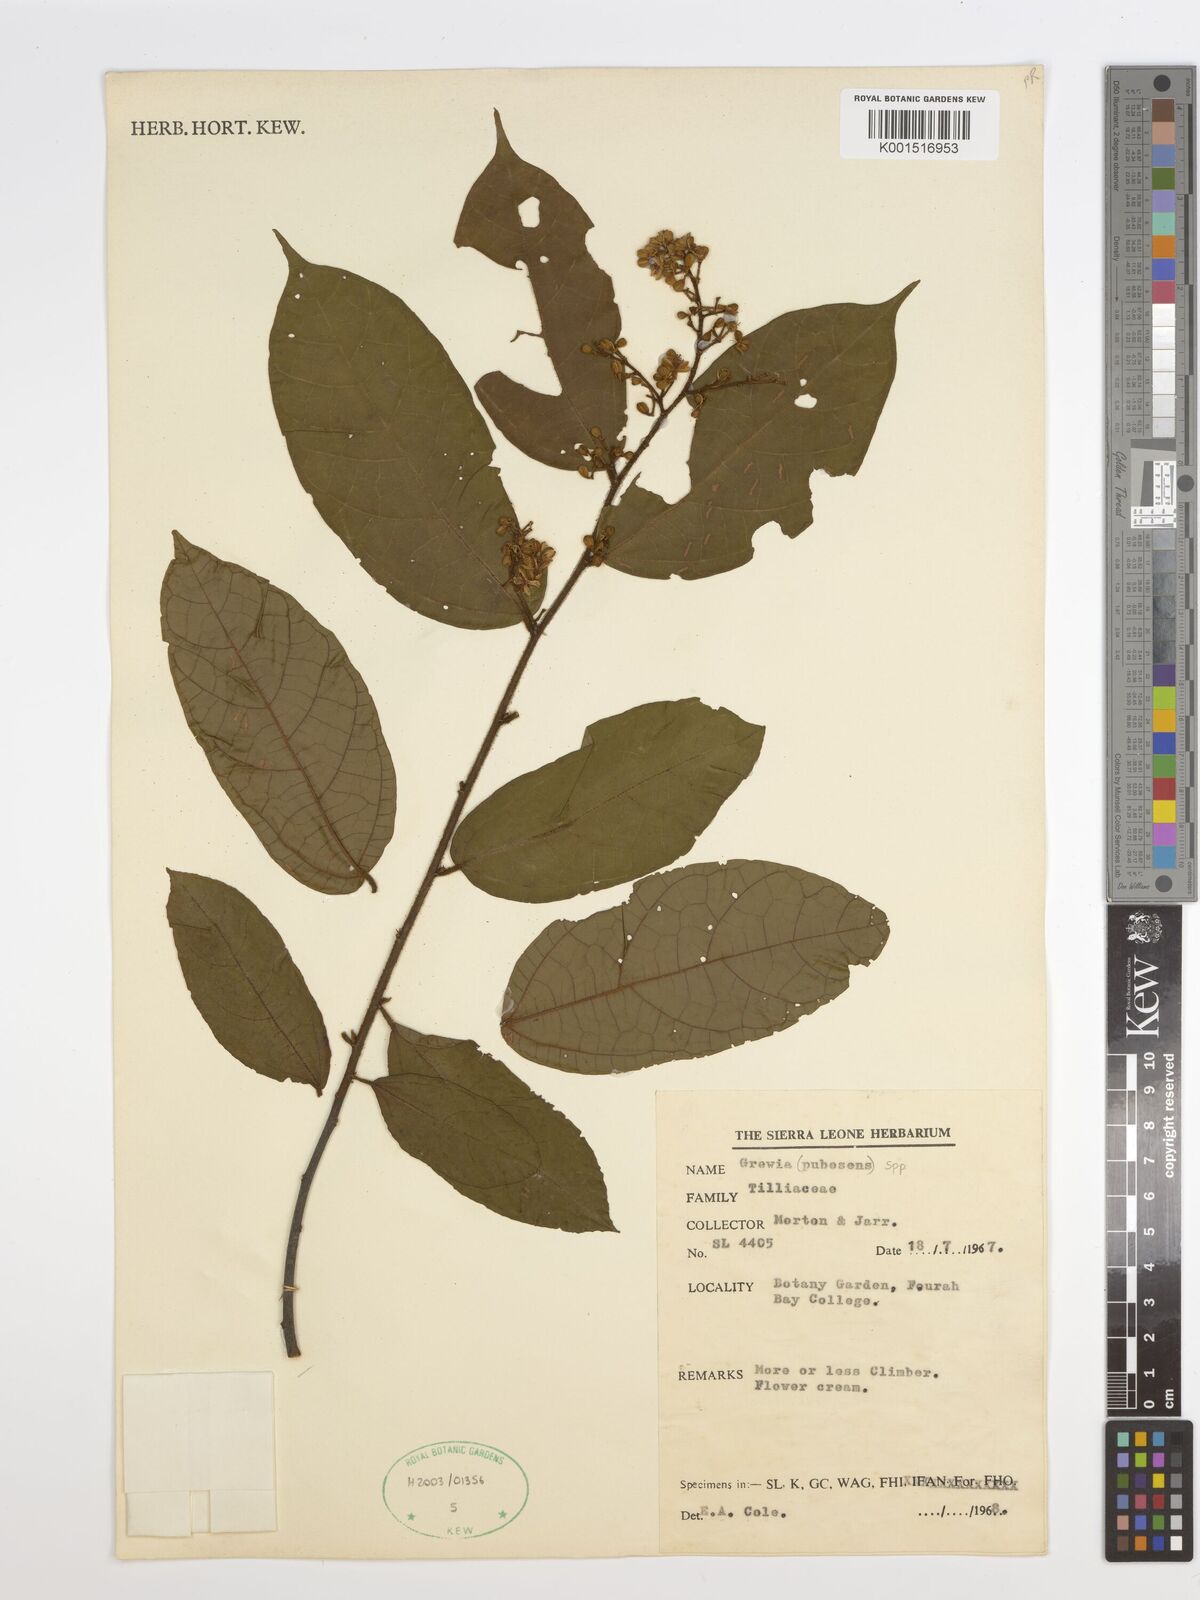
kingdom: Plantae
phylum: Tracheophyta
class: Magnoliopsida
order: Malvales
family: Malvaceae
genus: Grewia
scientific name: Grewia pubescens
